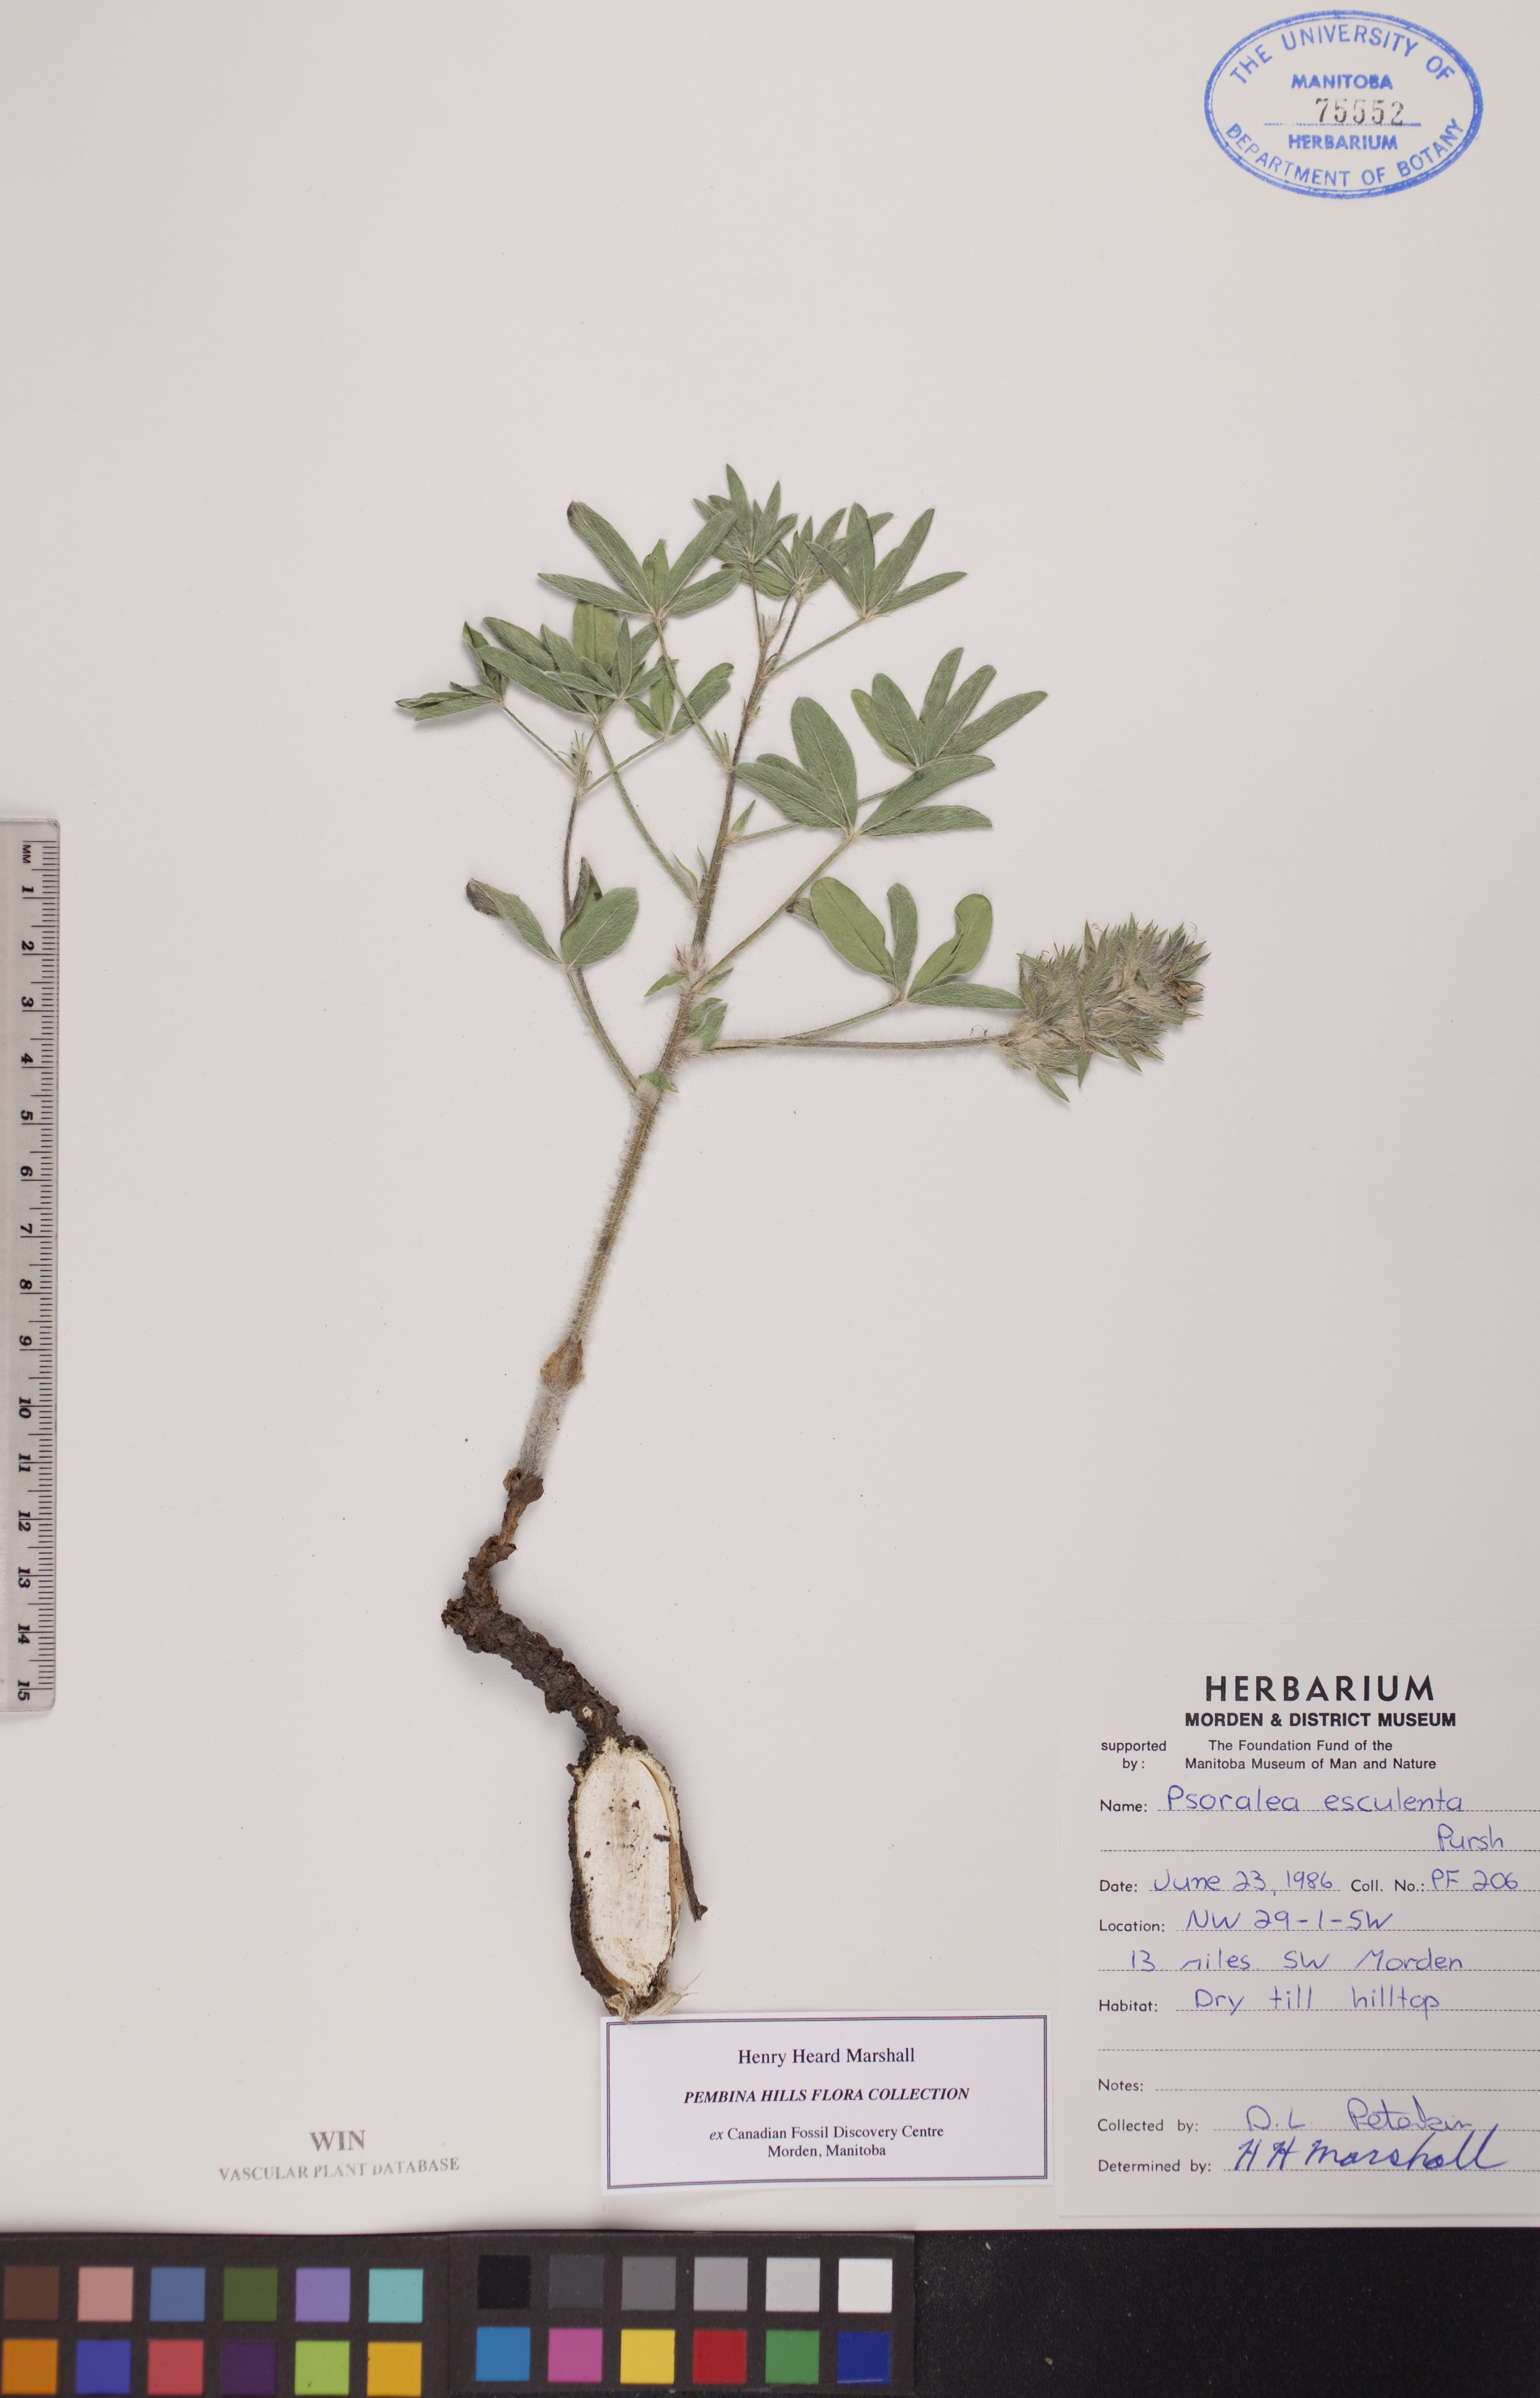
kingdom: Plantae
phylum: Tracheophyta
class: Magnoliopsida
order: Fabales
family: Fabaceae
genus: Pediomelum
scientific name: Pediomelum humile
